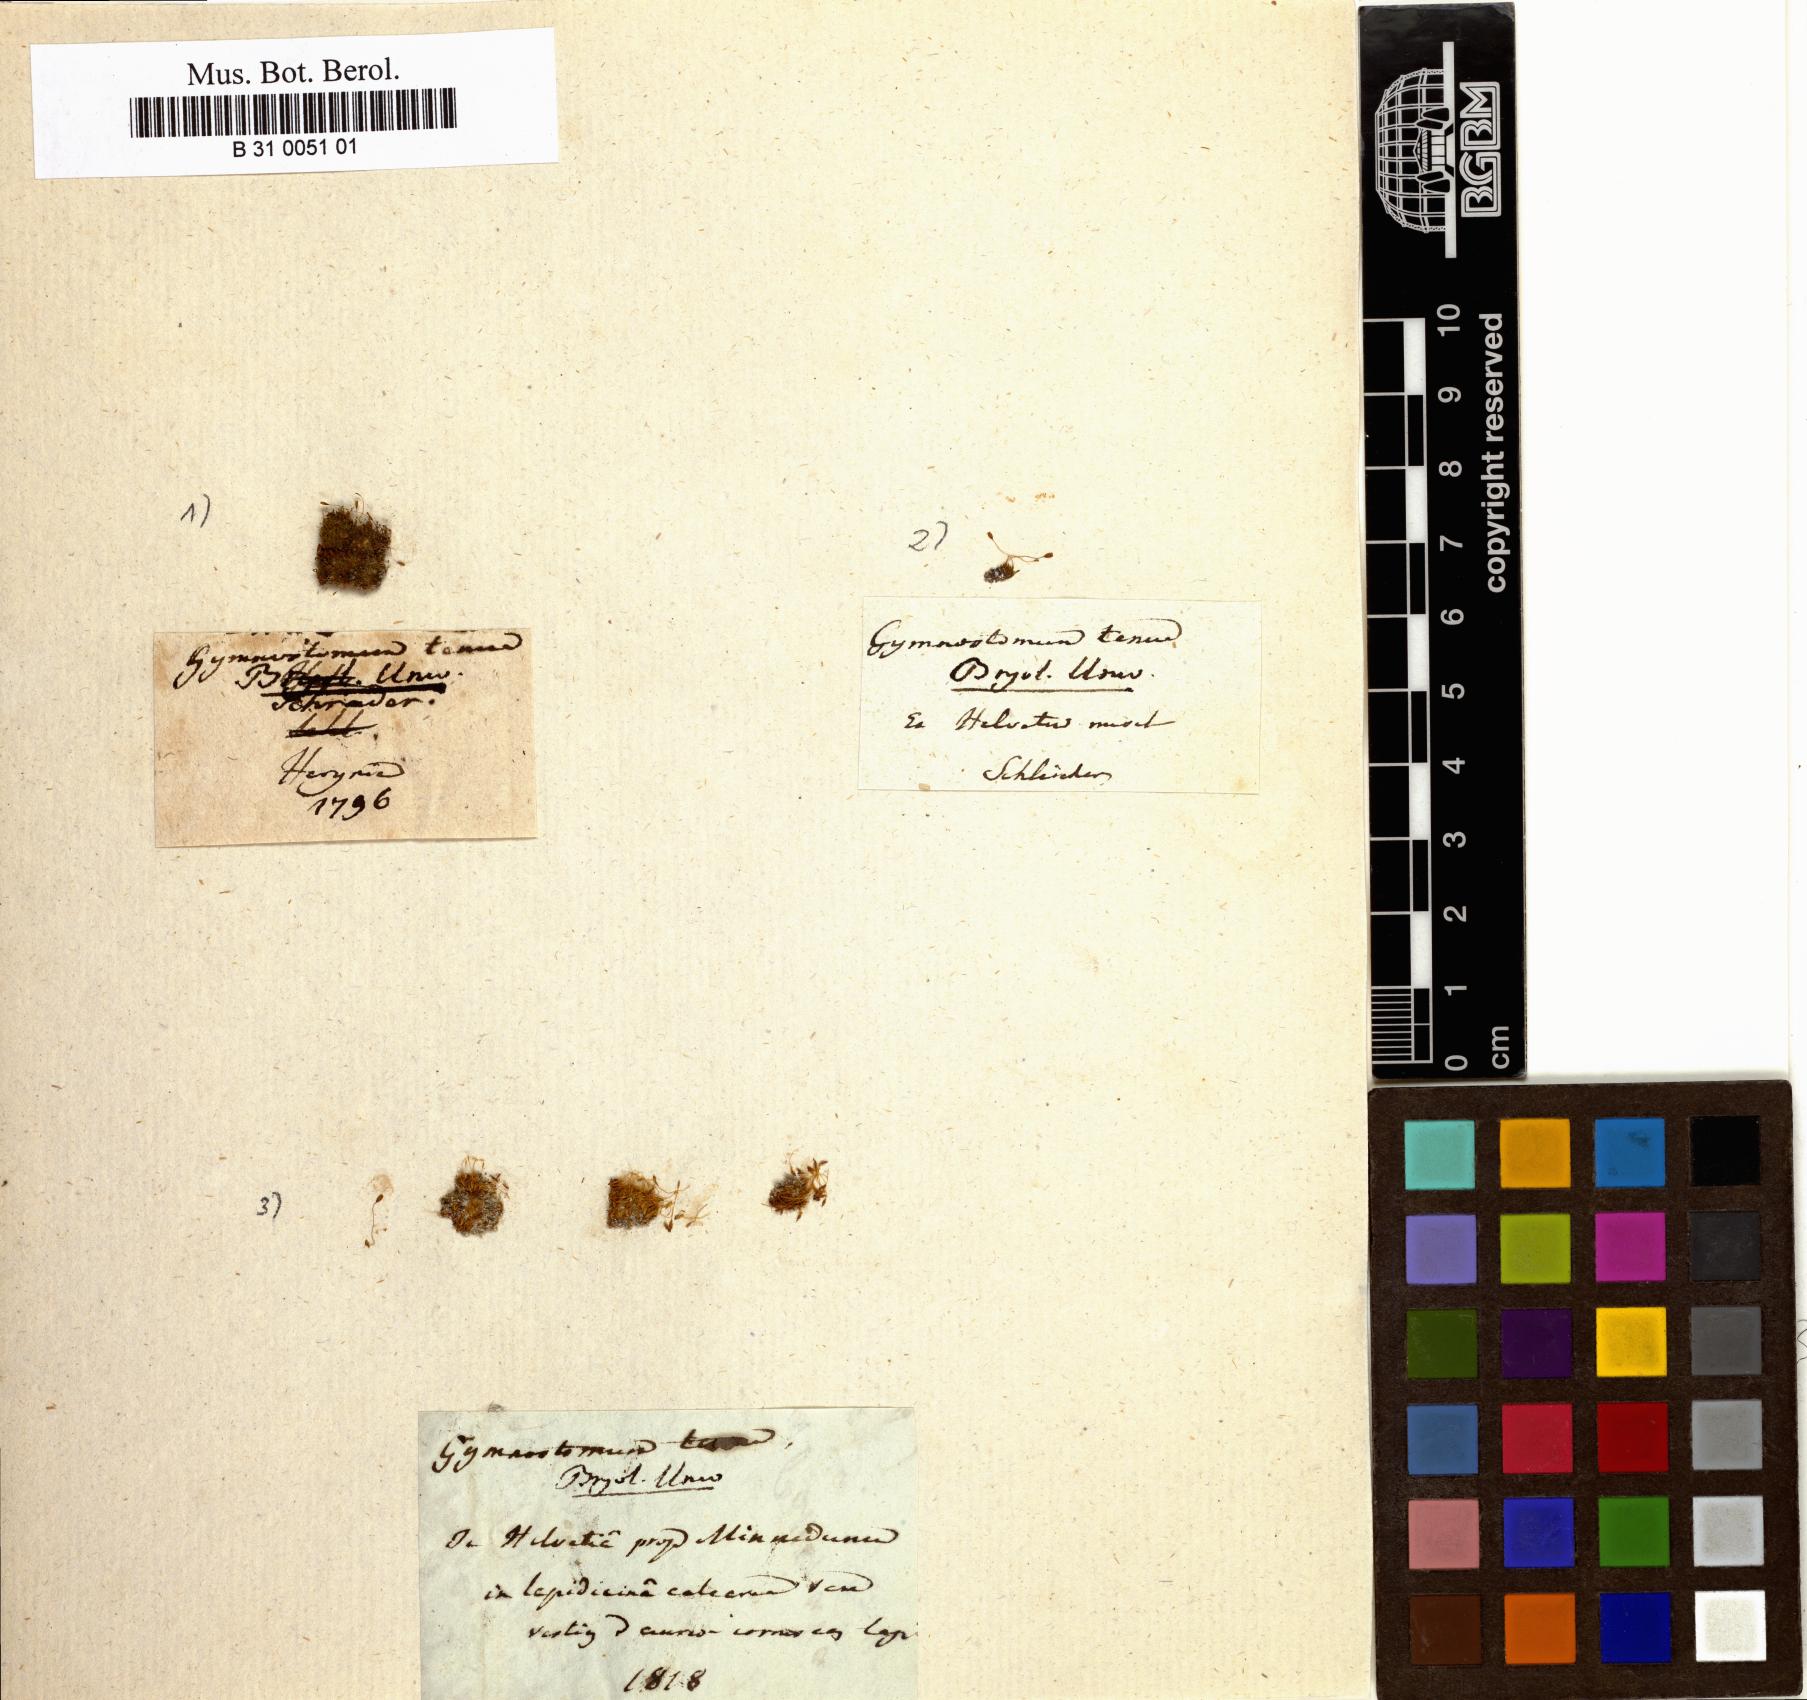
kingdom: Plantae
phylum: Bryophyta
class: Bryopsida
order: Pottiales
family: Pottiaceae
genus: Gyroweisia
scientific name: Gyroweisia tenuis
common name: Slender stubble-moss
